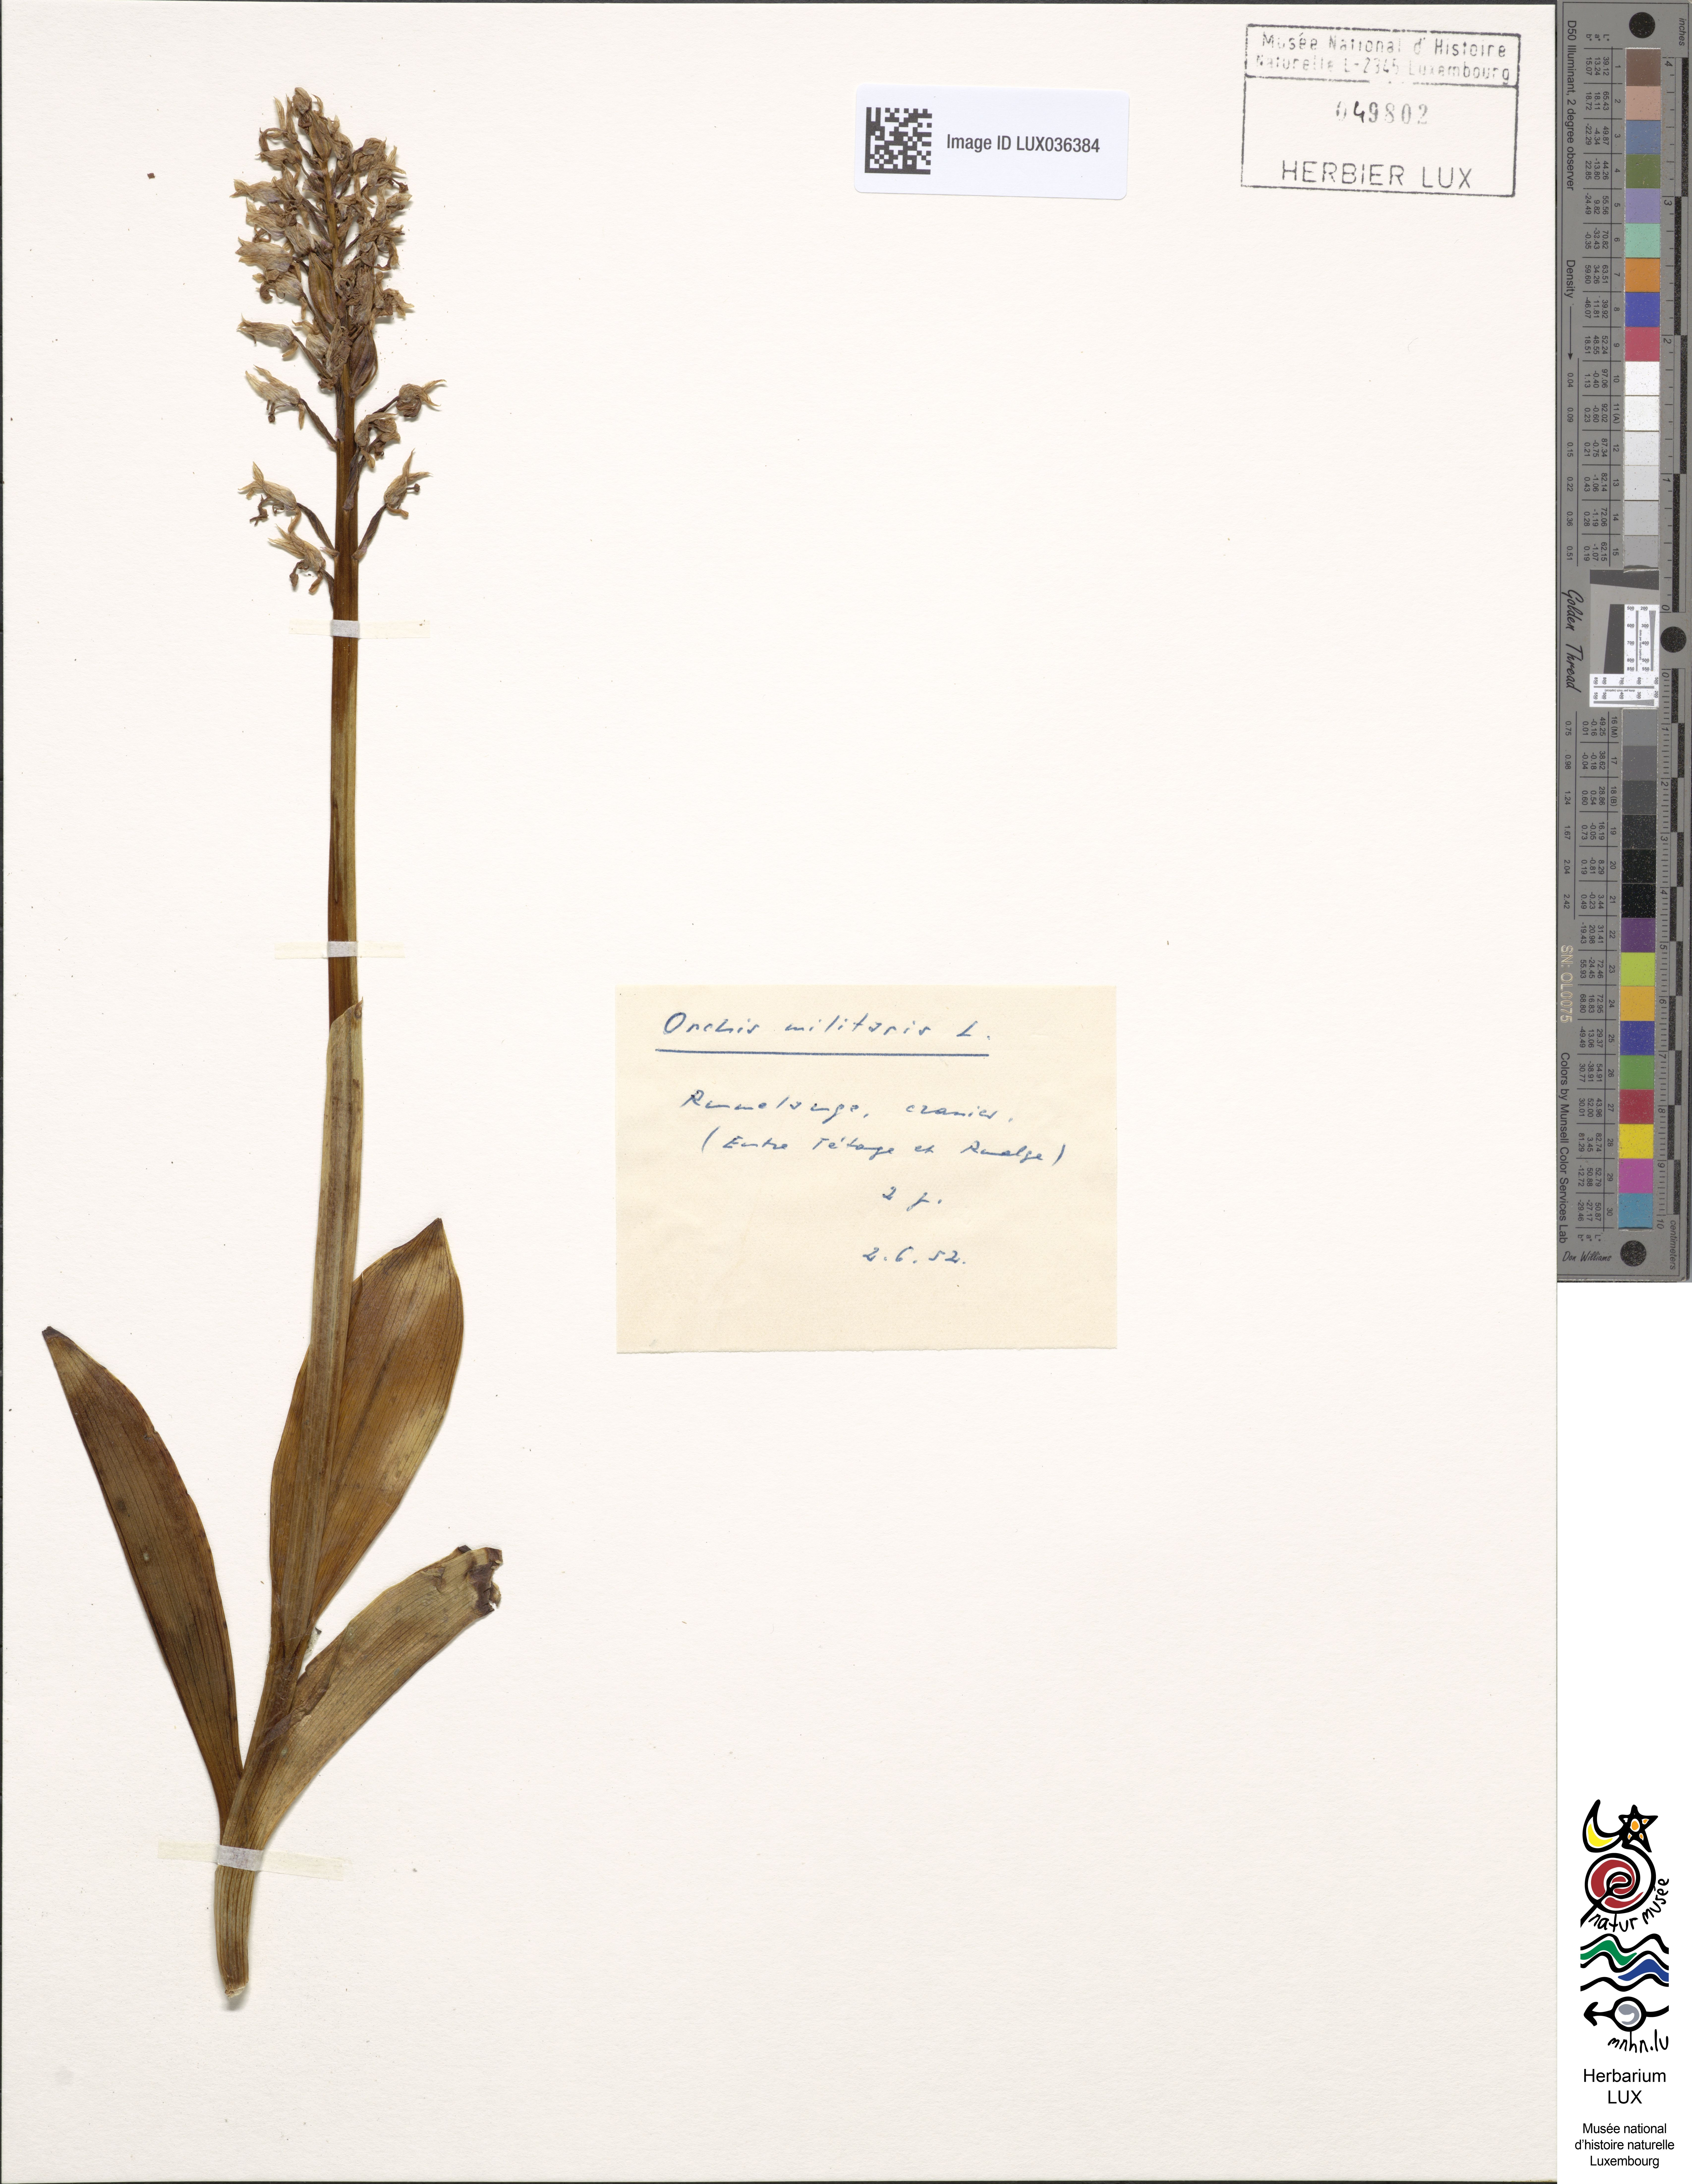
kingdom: Plantae
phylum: Tracheophyta
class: Liliopsida
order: Asparagales
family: Orchidaceae
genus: Orchis
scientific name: Orchis militaris
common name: Military orchid
